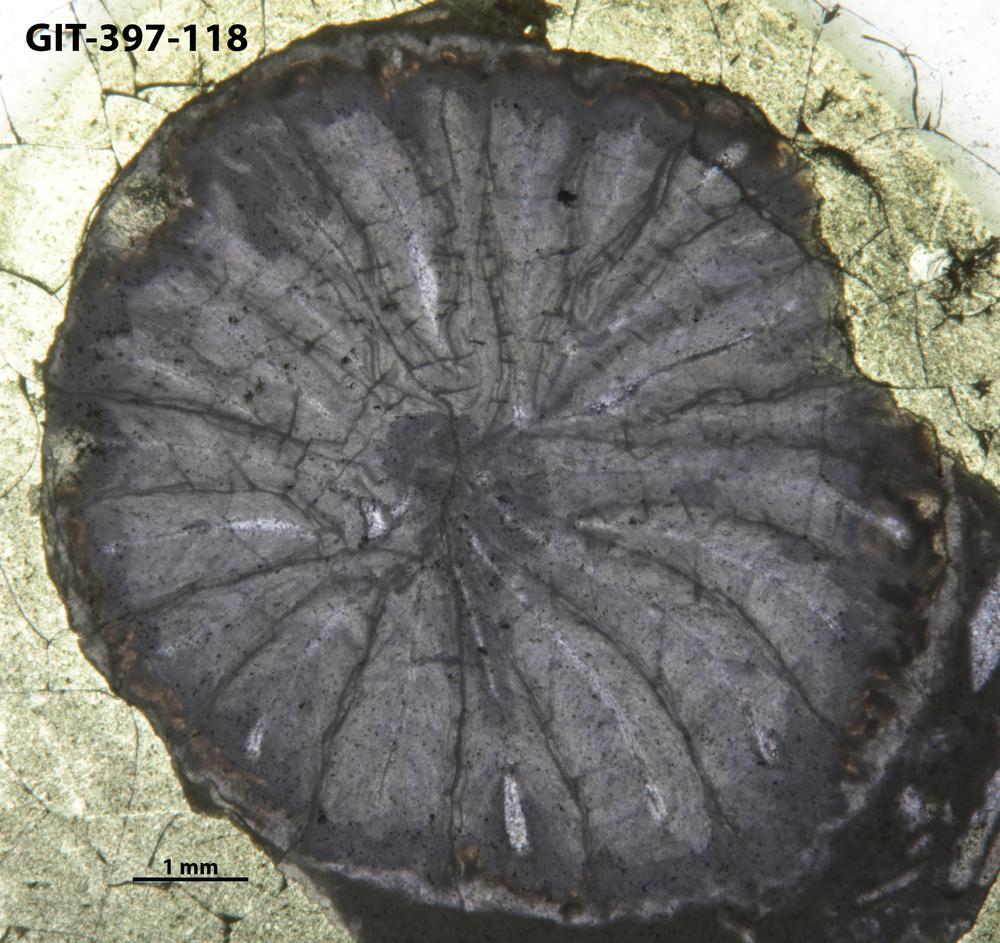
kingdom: Animalia
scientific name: Animalia
